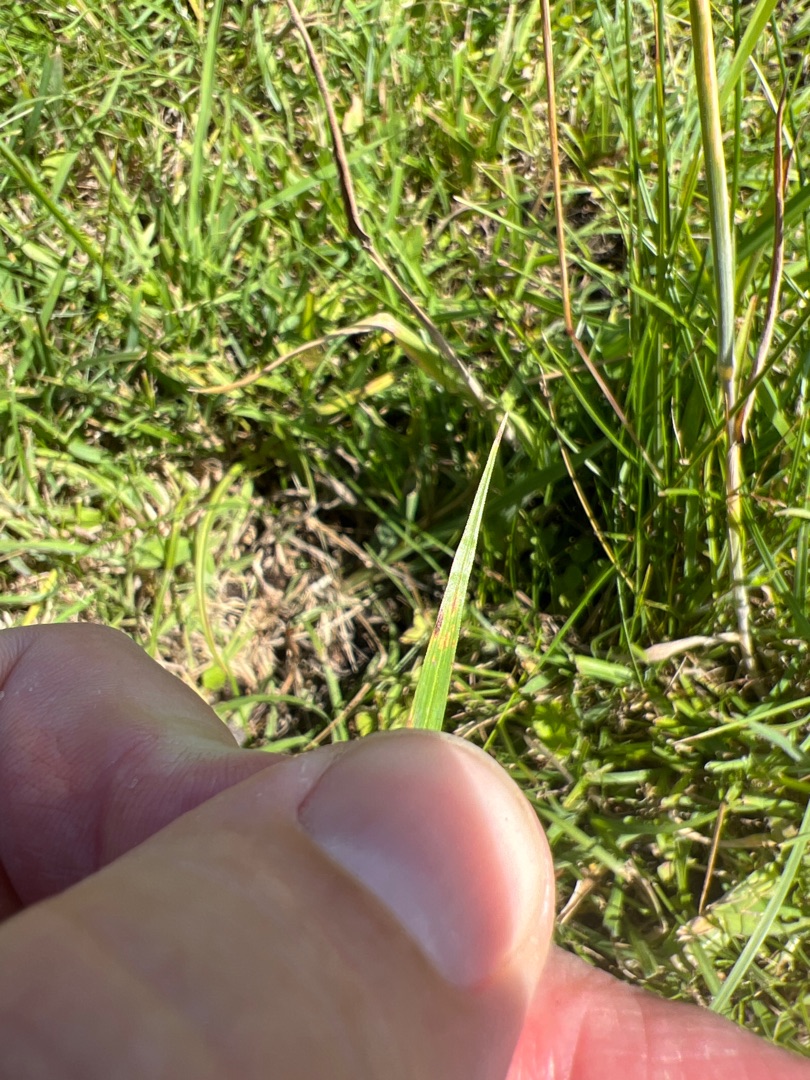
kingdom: Plantae
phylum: Tracheophyta
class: Liliopsida
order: Poales
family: Cyperaceae
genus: Carex
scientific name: Carex flacca
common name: Blågrøn star
